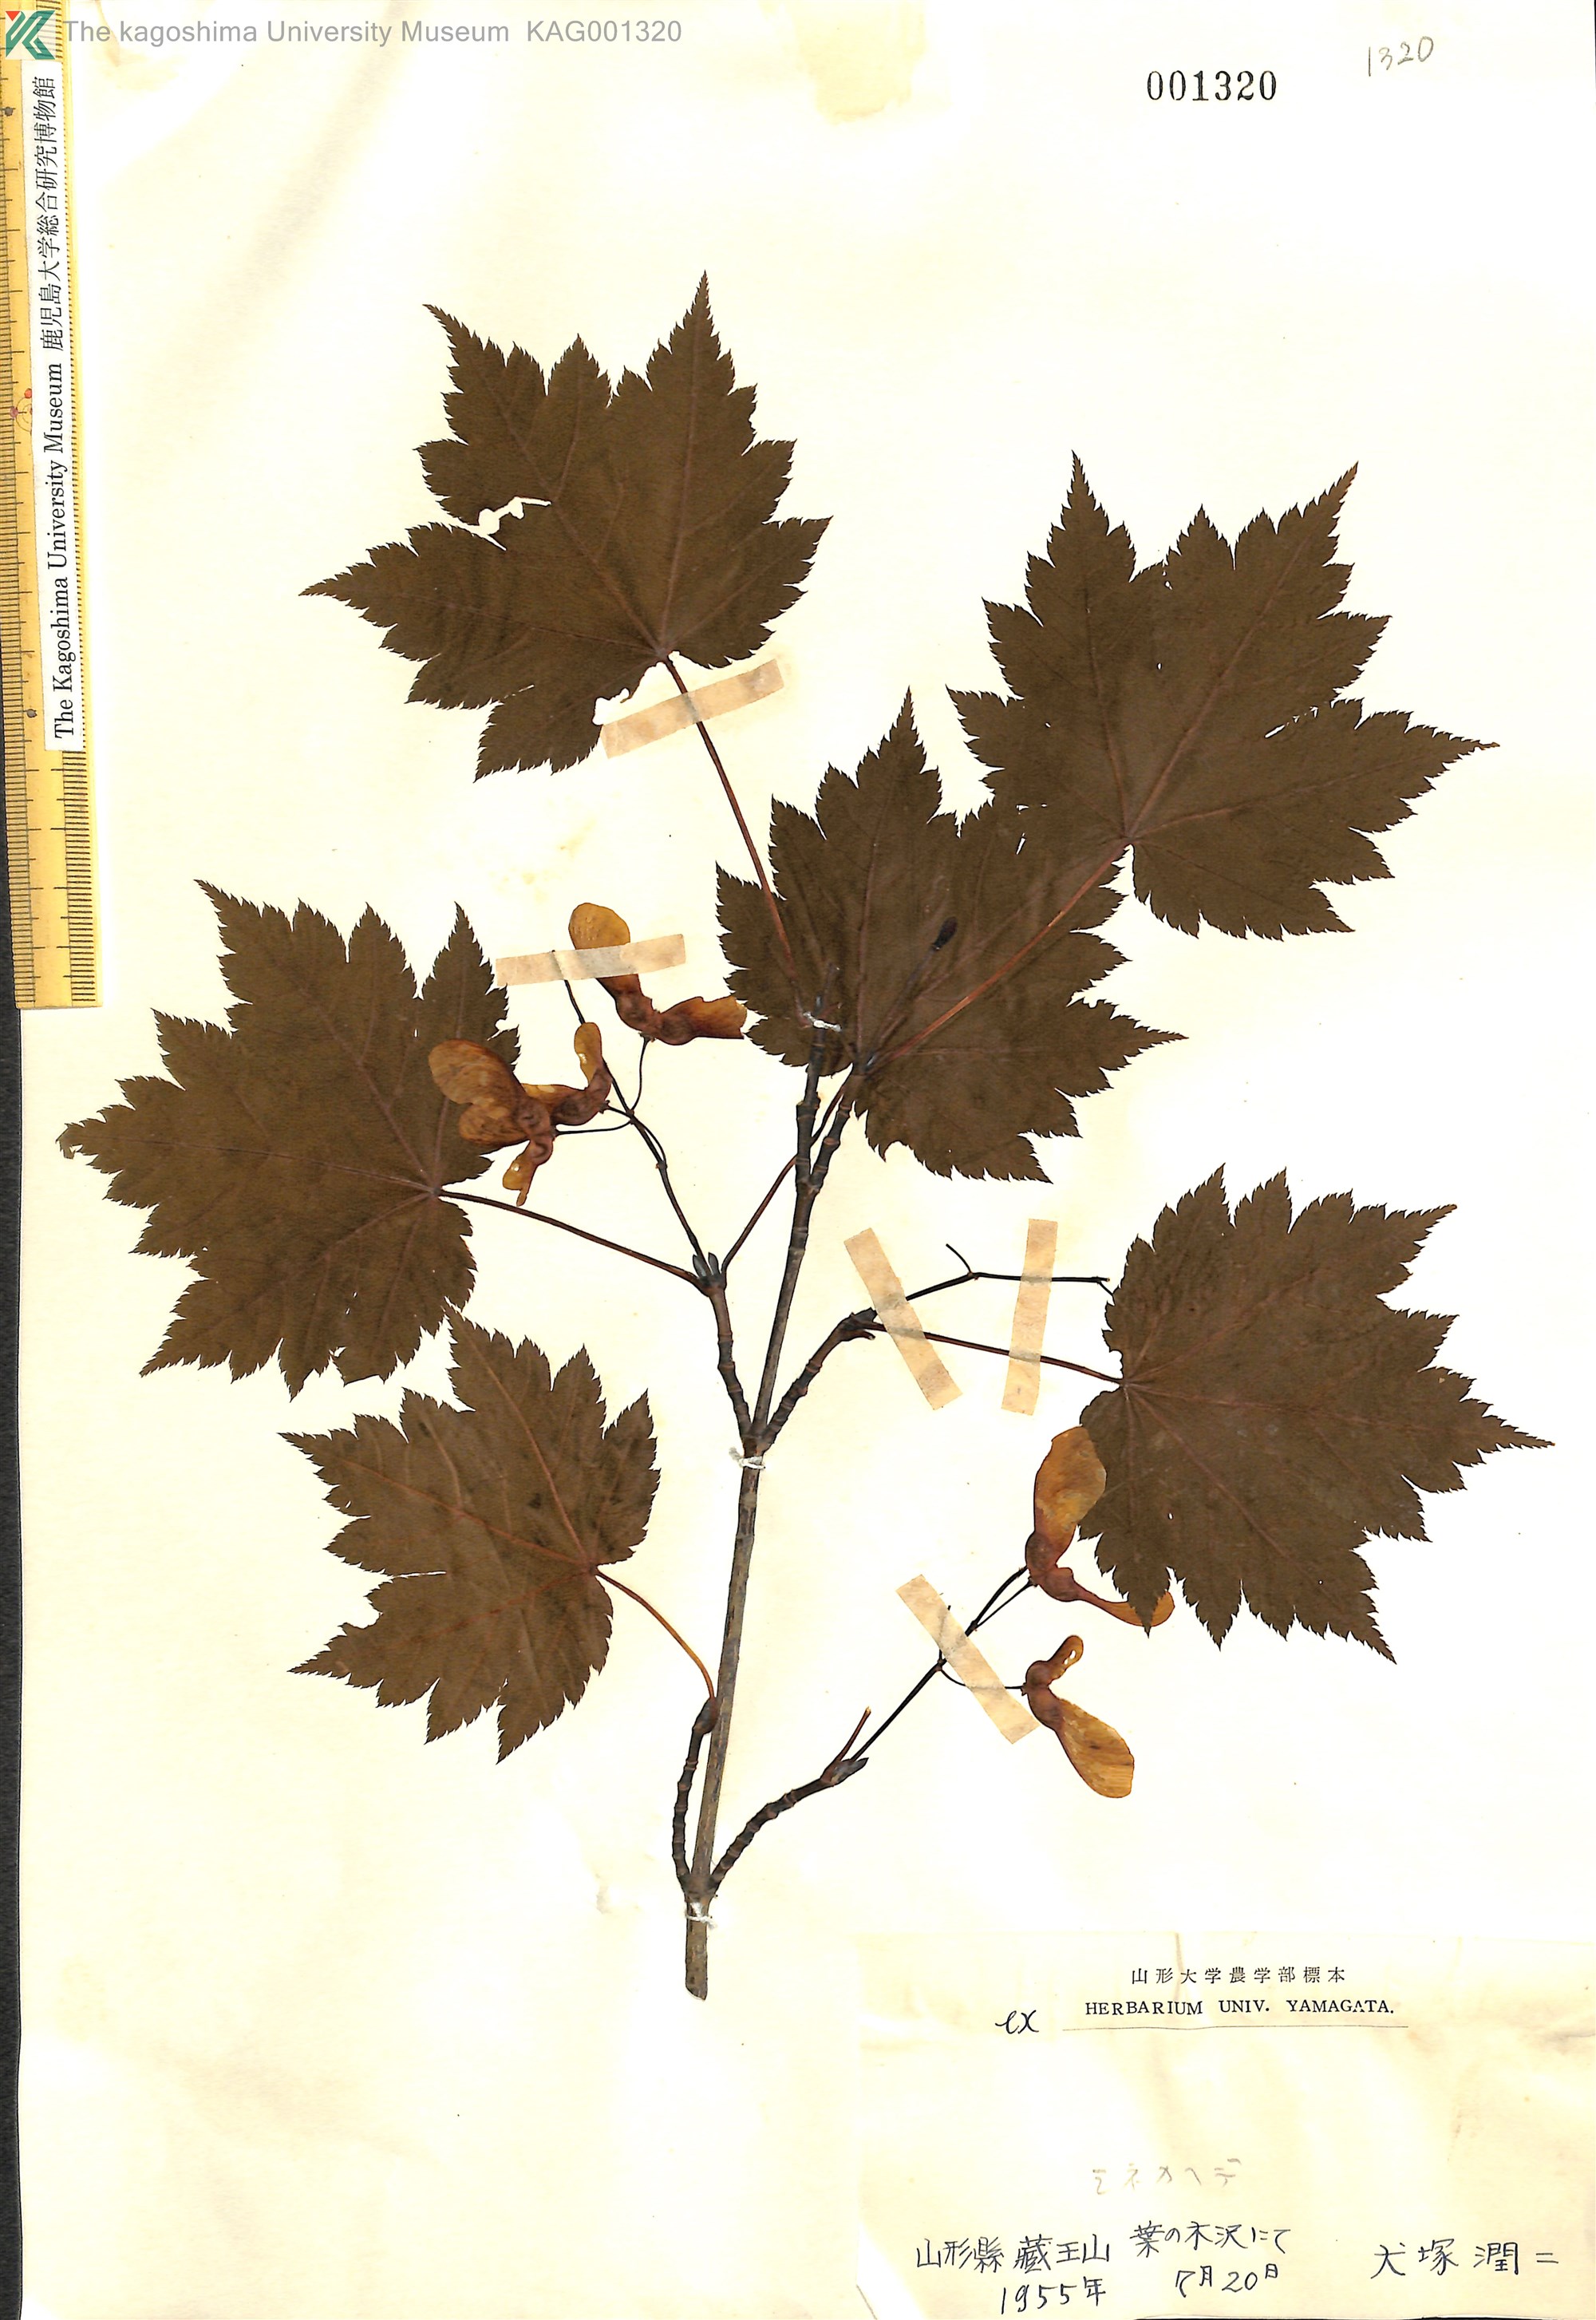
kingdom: Plantae
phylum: Tracheophyta
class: Magnoliopsida
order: Sapindales
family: Sapindaceae
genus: Acer
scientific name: Acer tschonoskii
